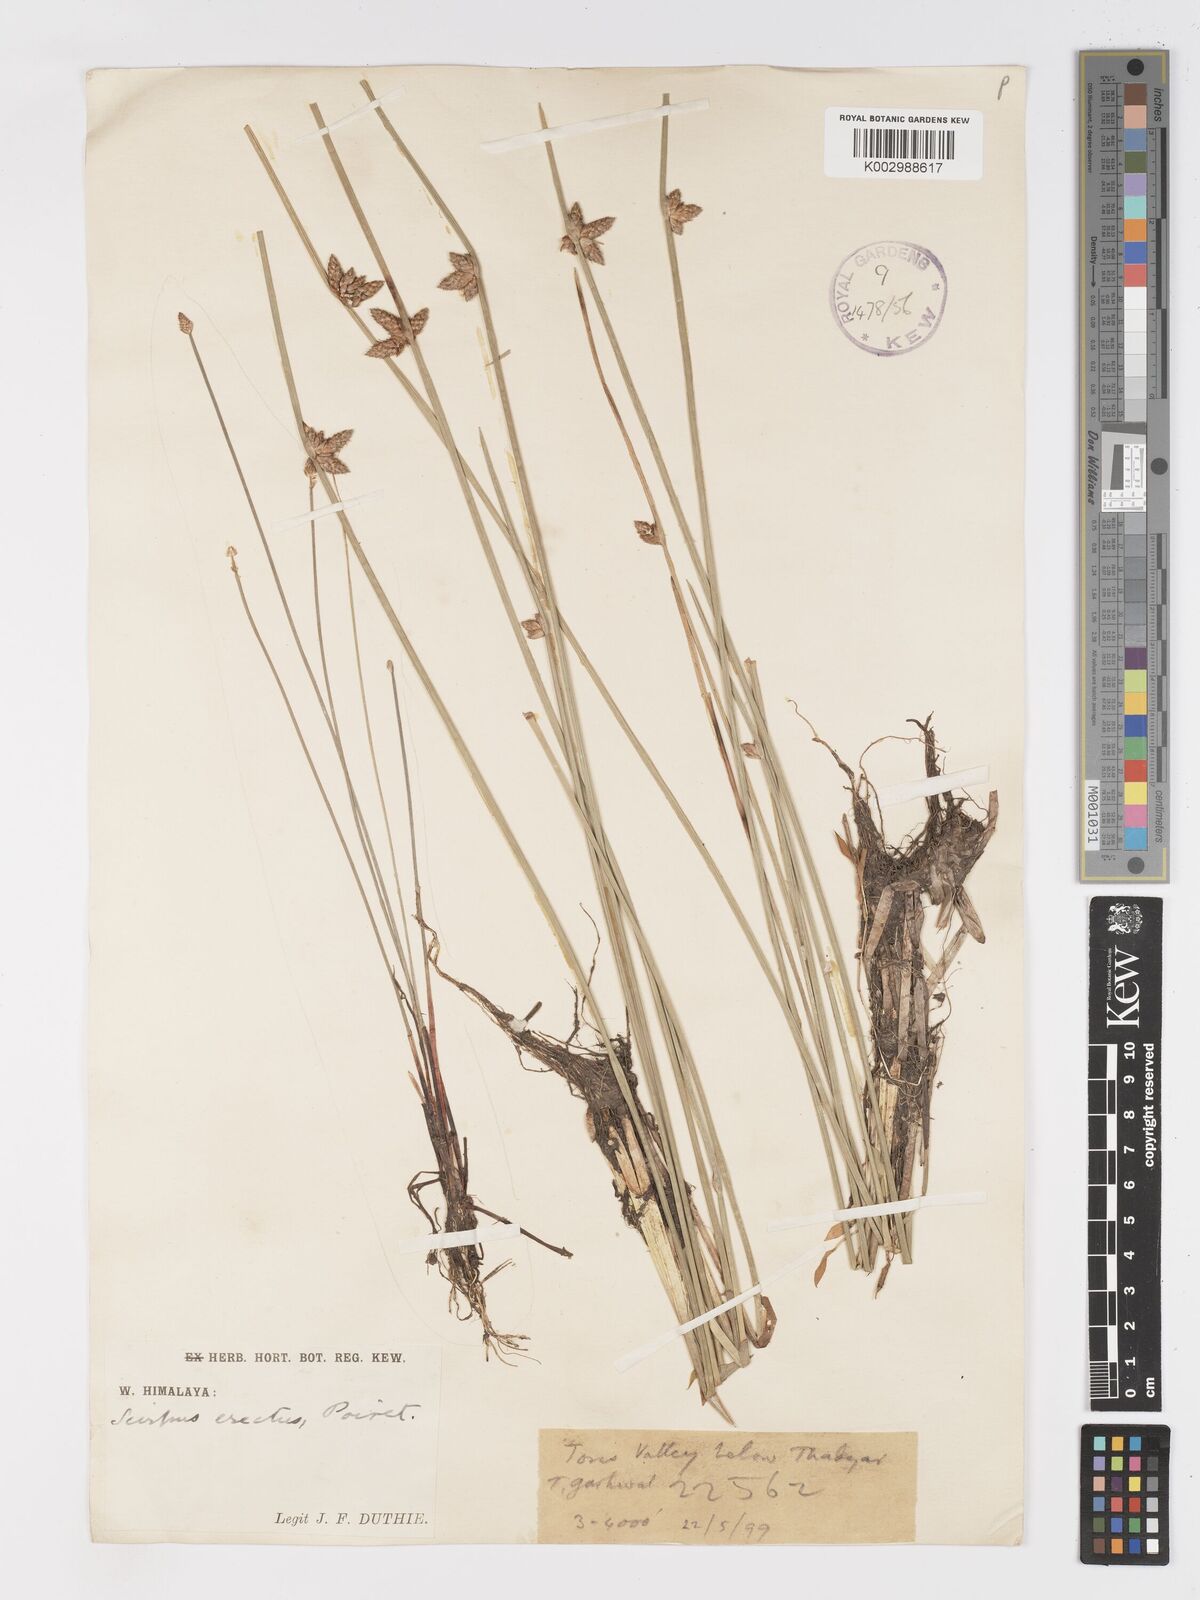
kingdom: Plantae
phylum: Tracheophyta
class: Liliopsida
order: Poales
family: Cyperaceae
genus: Schoenoplectiella
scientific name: Schoenoplectiella juncoides
